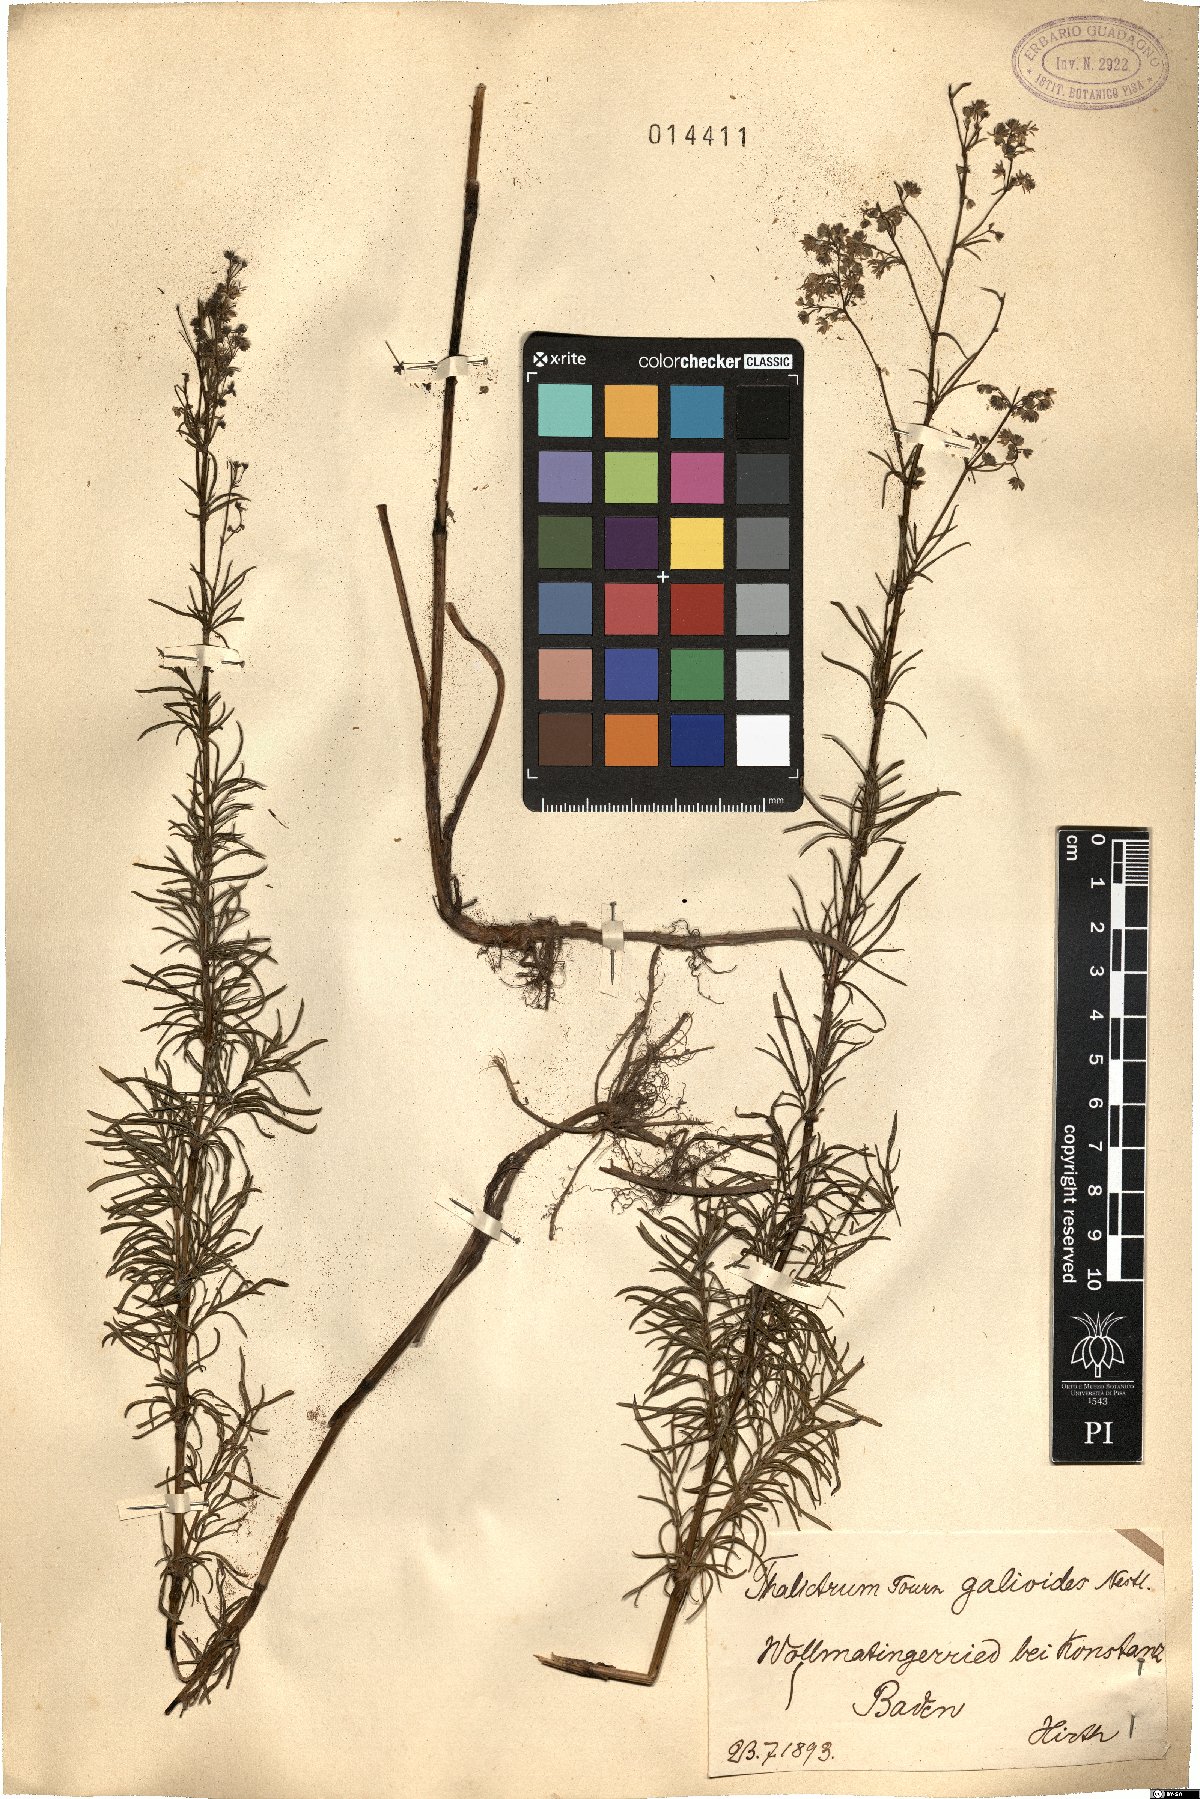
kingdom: Plantae
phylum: Tracheophyta
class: Magnoliopsida
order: Ranunculales
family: Ranunculaceae
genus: Thalictrum
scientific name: Thalictrum simplex
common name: Small meadow-rue
